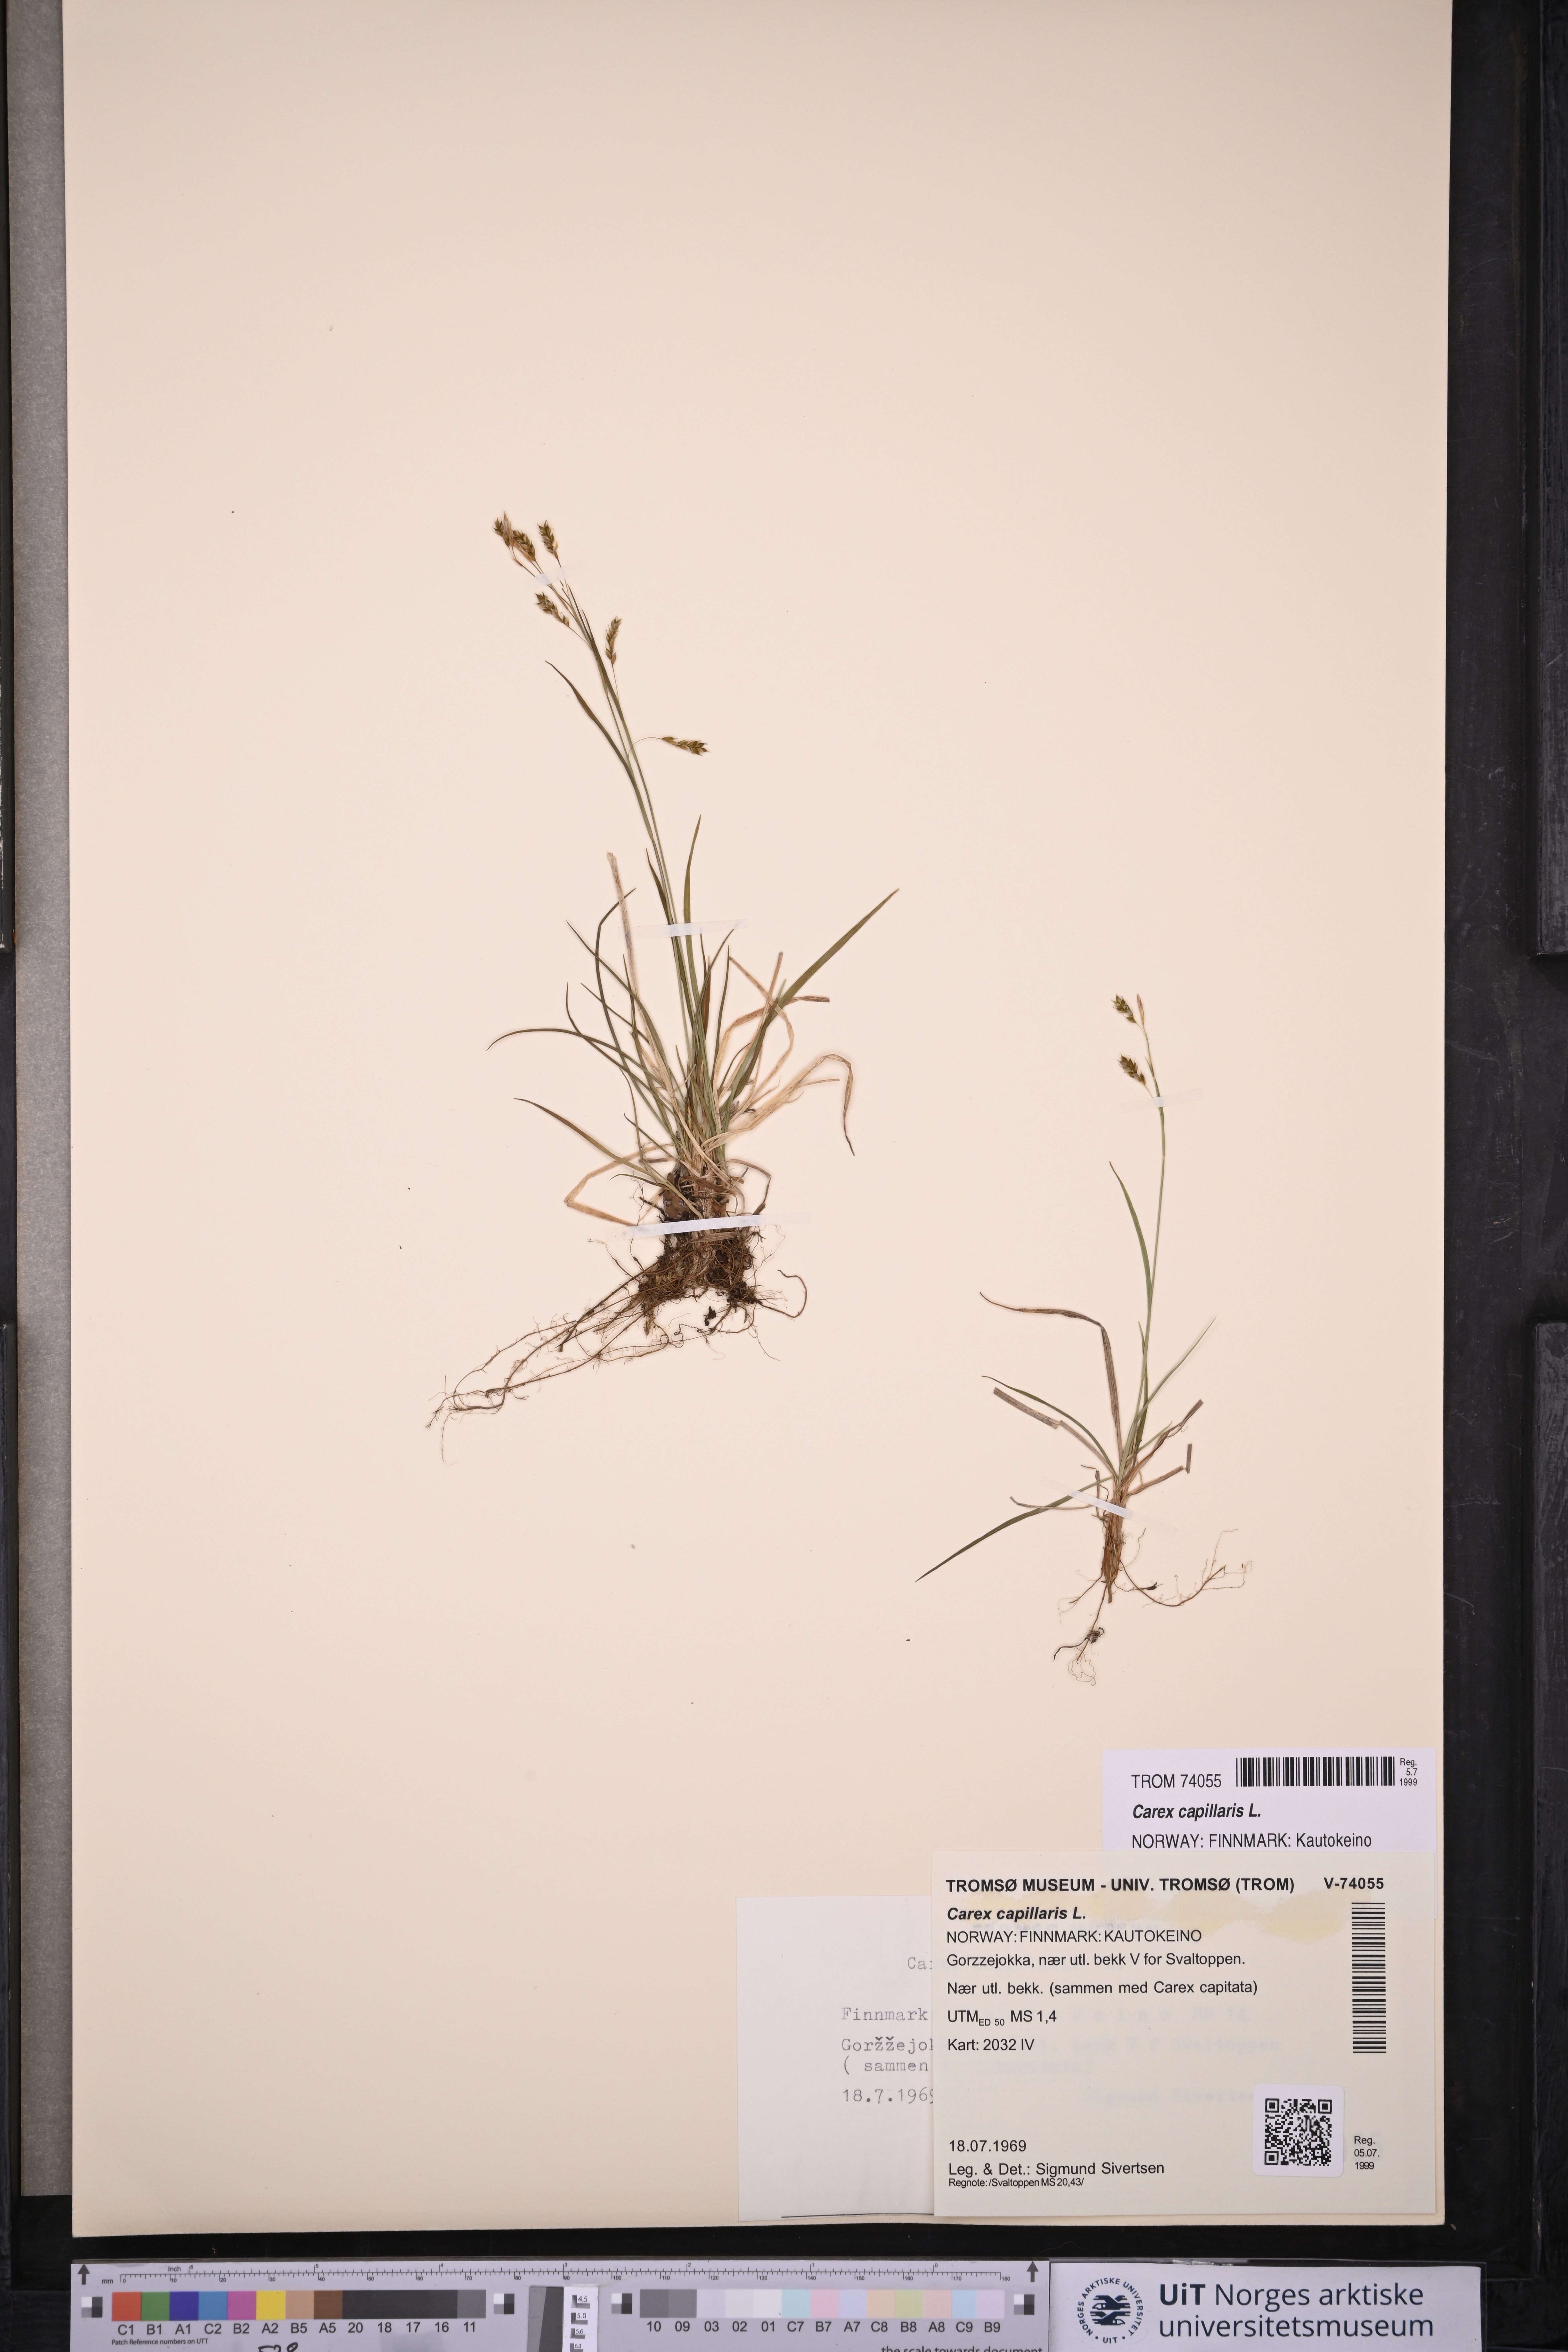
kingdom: Plantae
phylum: Tracheophyta
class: Liliopsida
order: Poales
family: Cyperaceae
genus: Carex
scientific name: Carex capillaris
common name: Hair sedge
